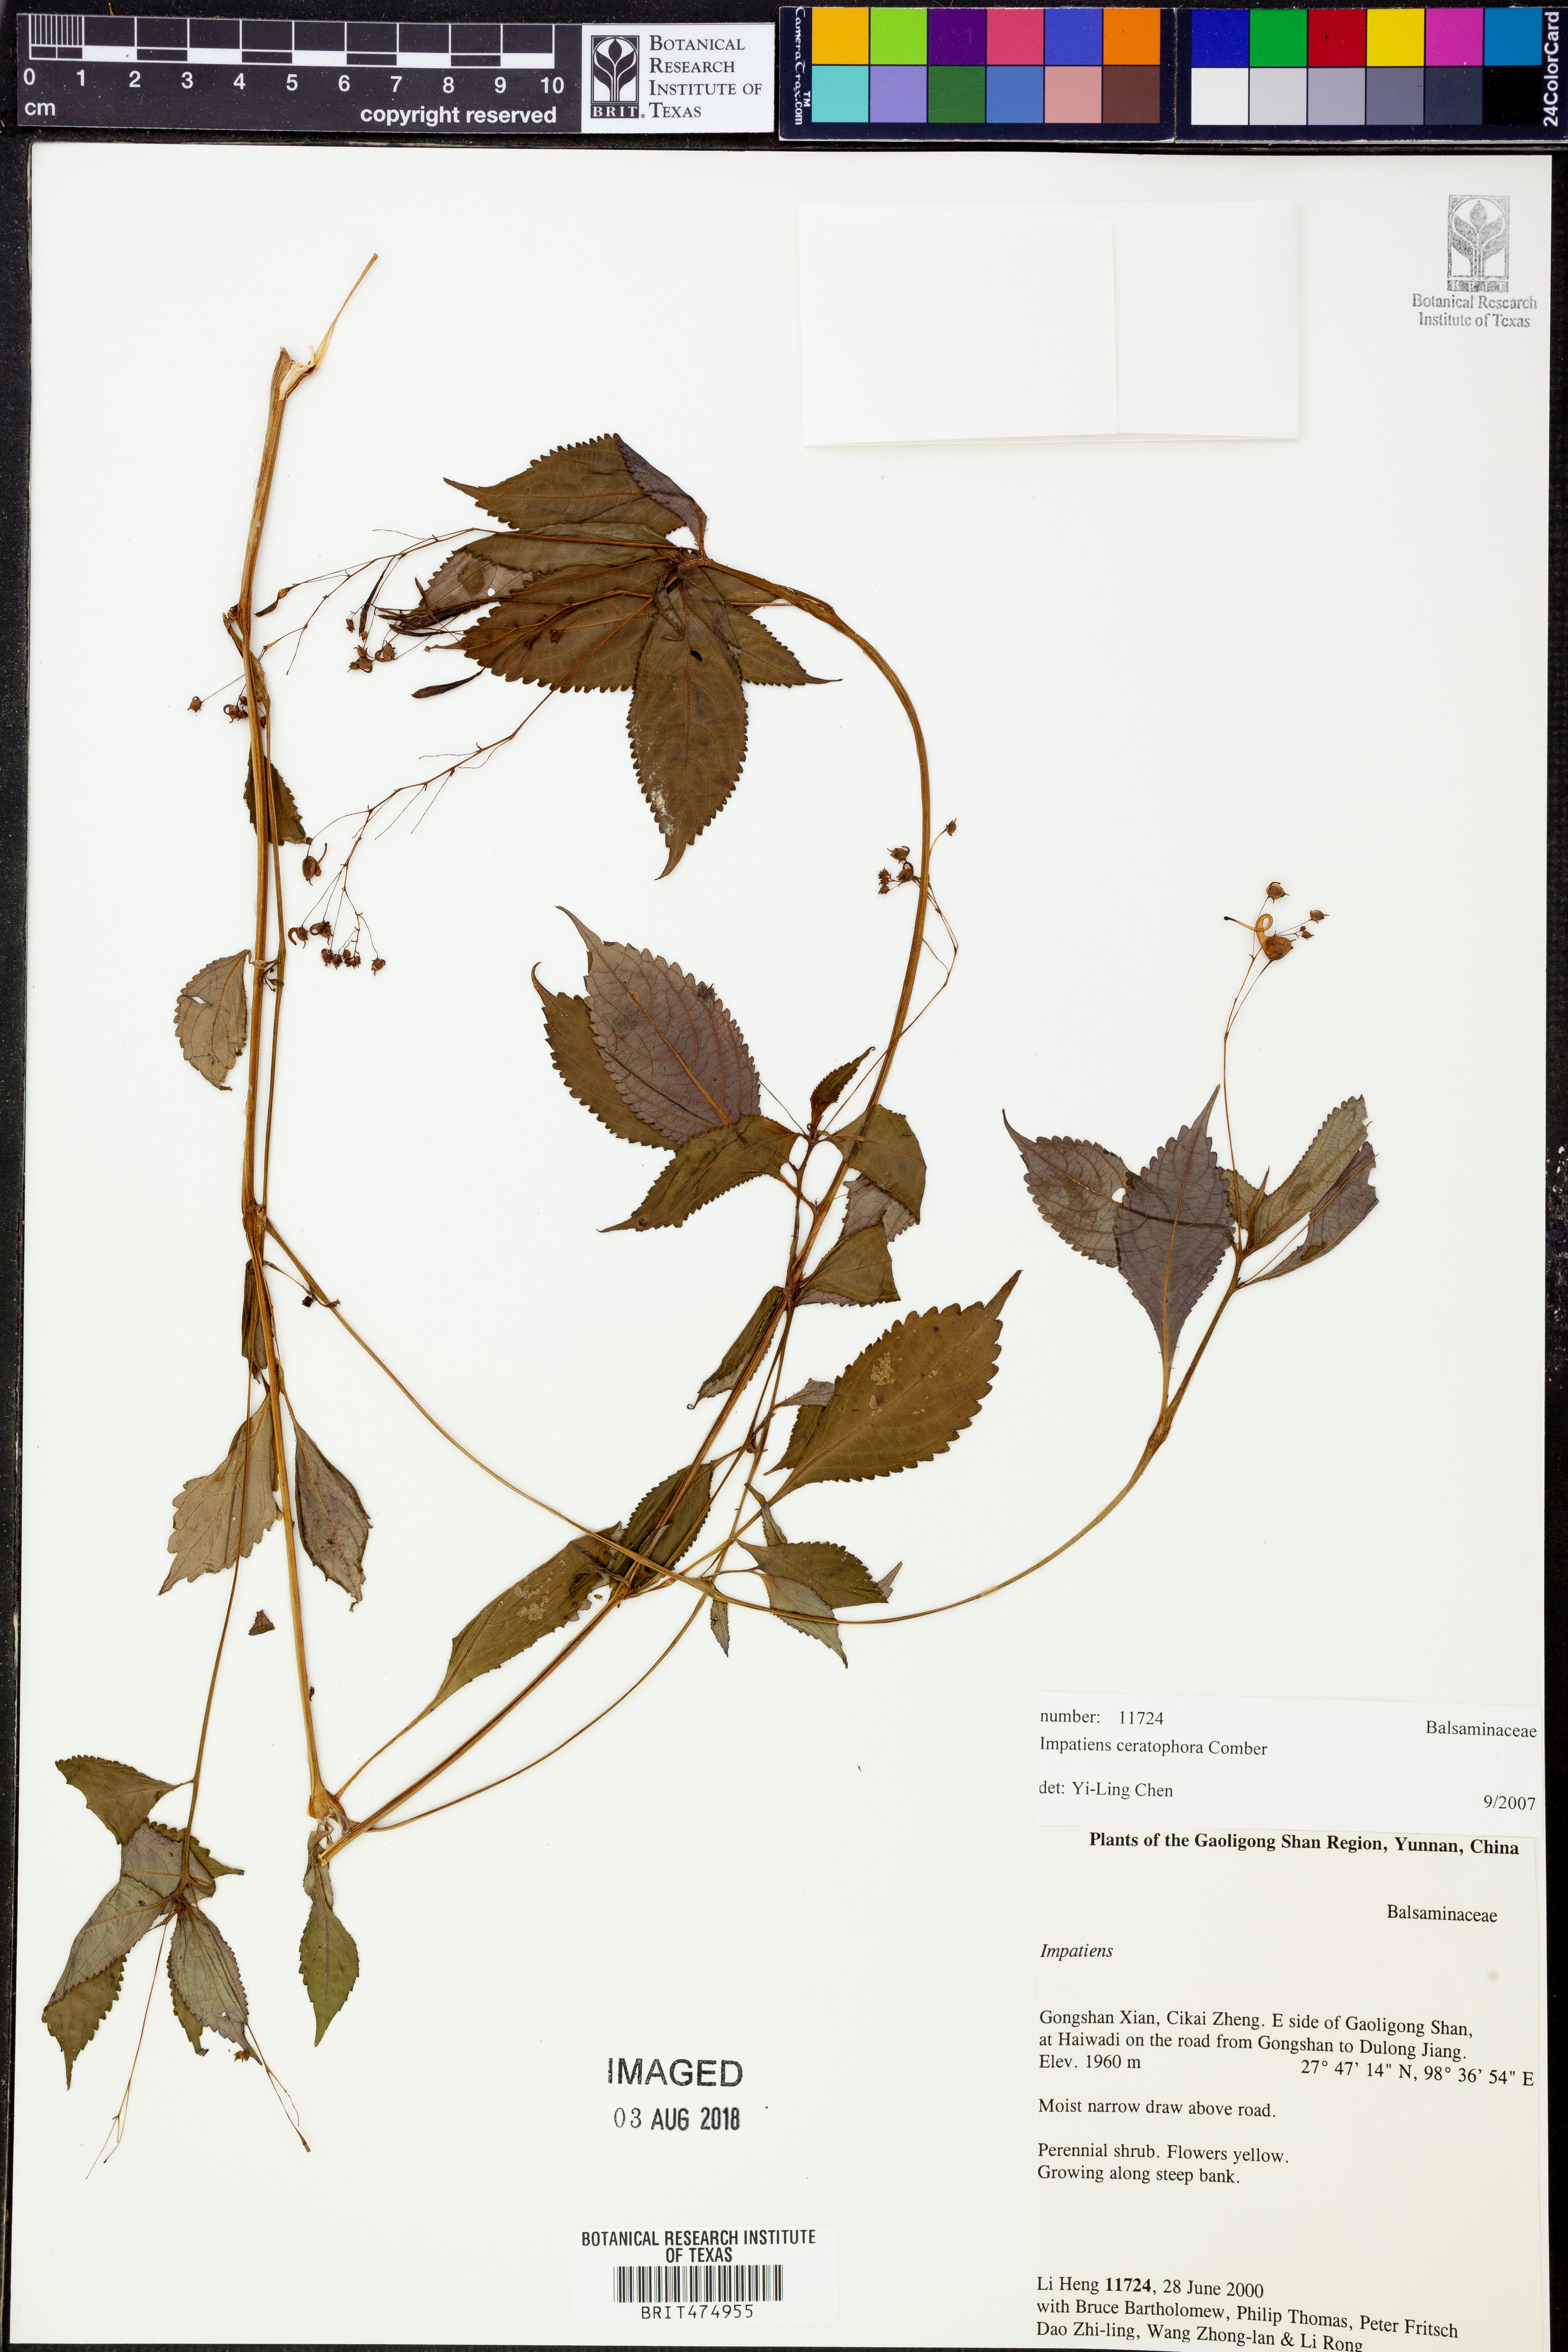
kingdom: Plantae
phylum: Tracheophyta
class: Magnoliopsida
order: Ericales
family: Balsaminaceae
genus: Impatiens
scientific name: Impatiens ceratophora
